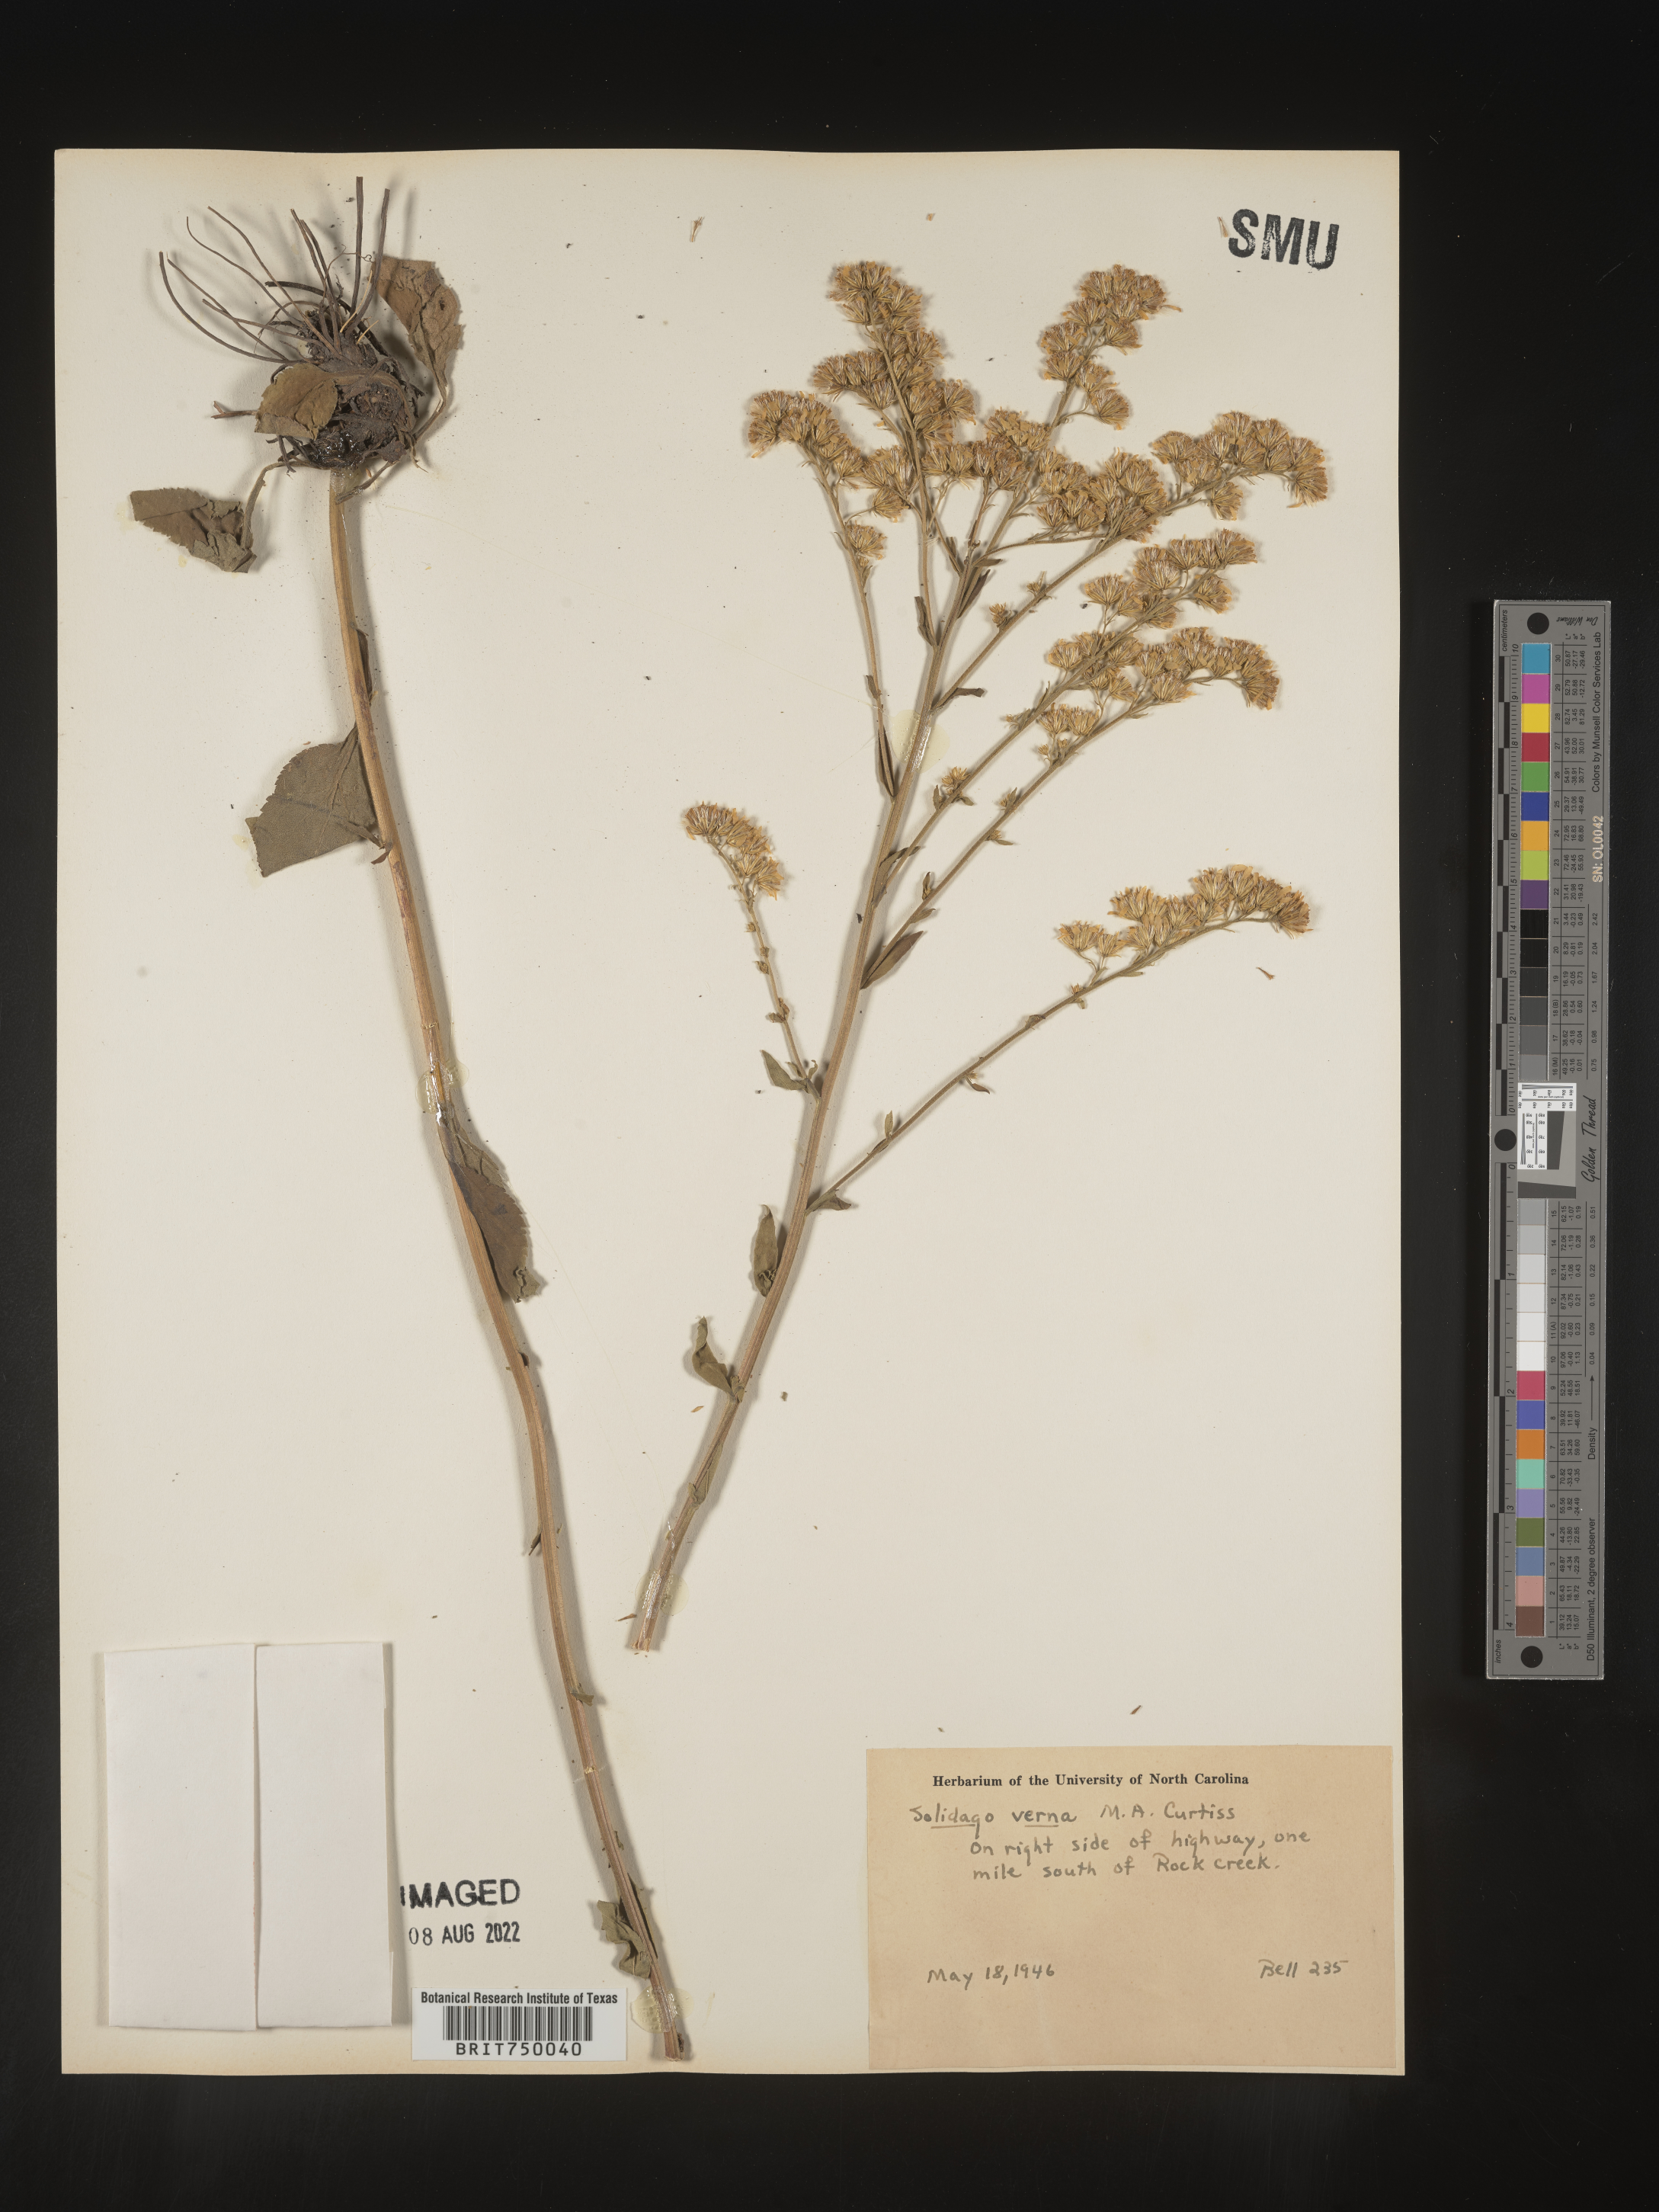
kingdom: Plantae
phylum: Tracheophyta
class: Magnoliopsida
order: Asterales
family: Asteraceae
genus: Solidago
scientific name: Solidago verna
